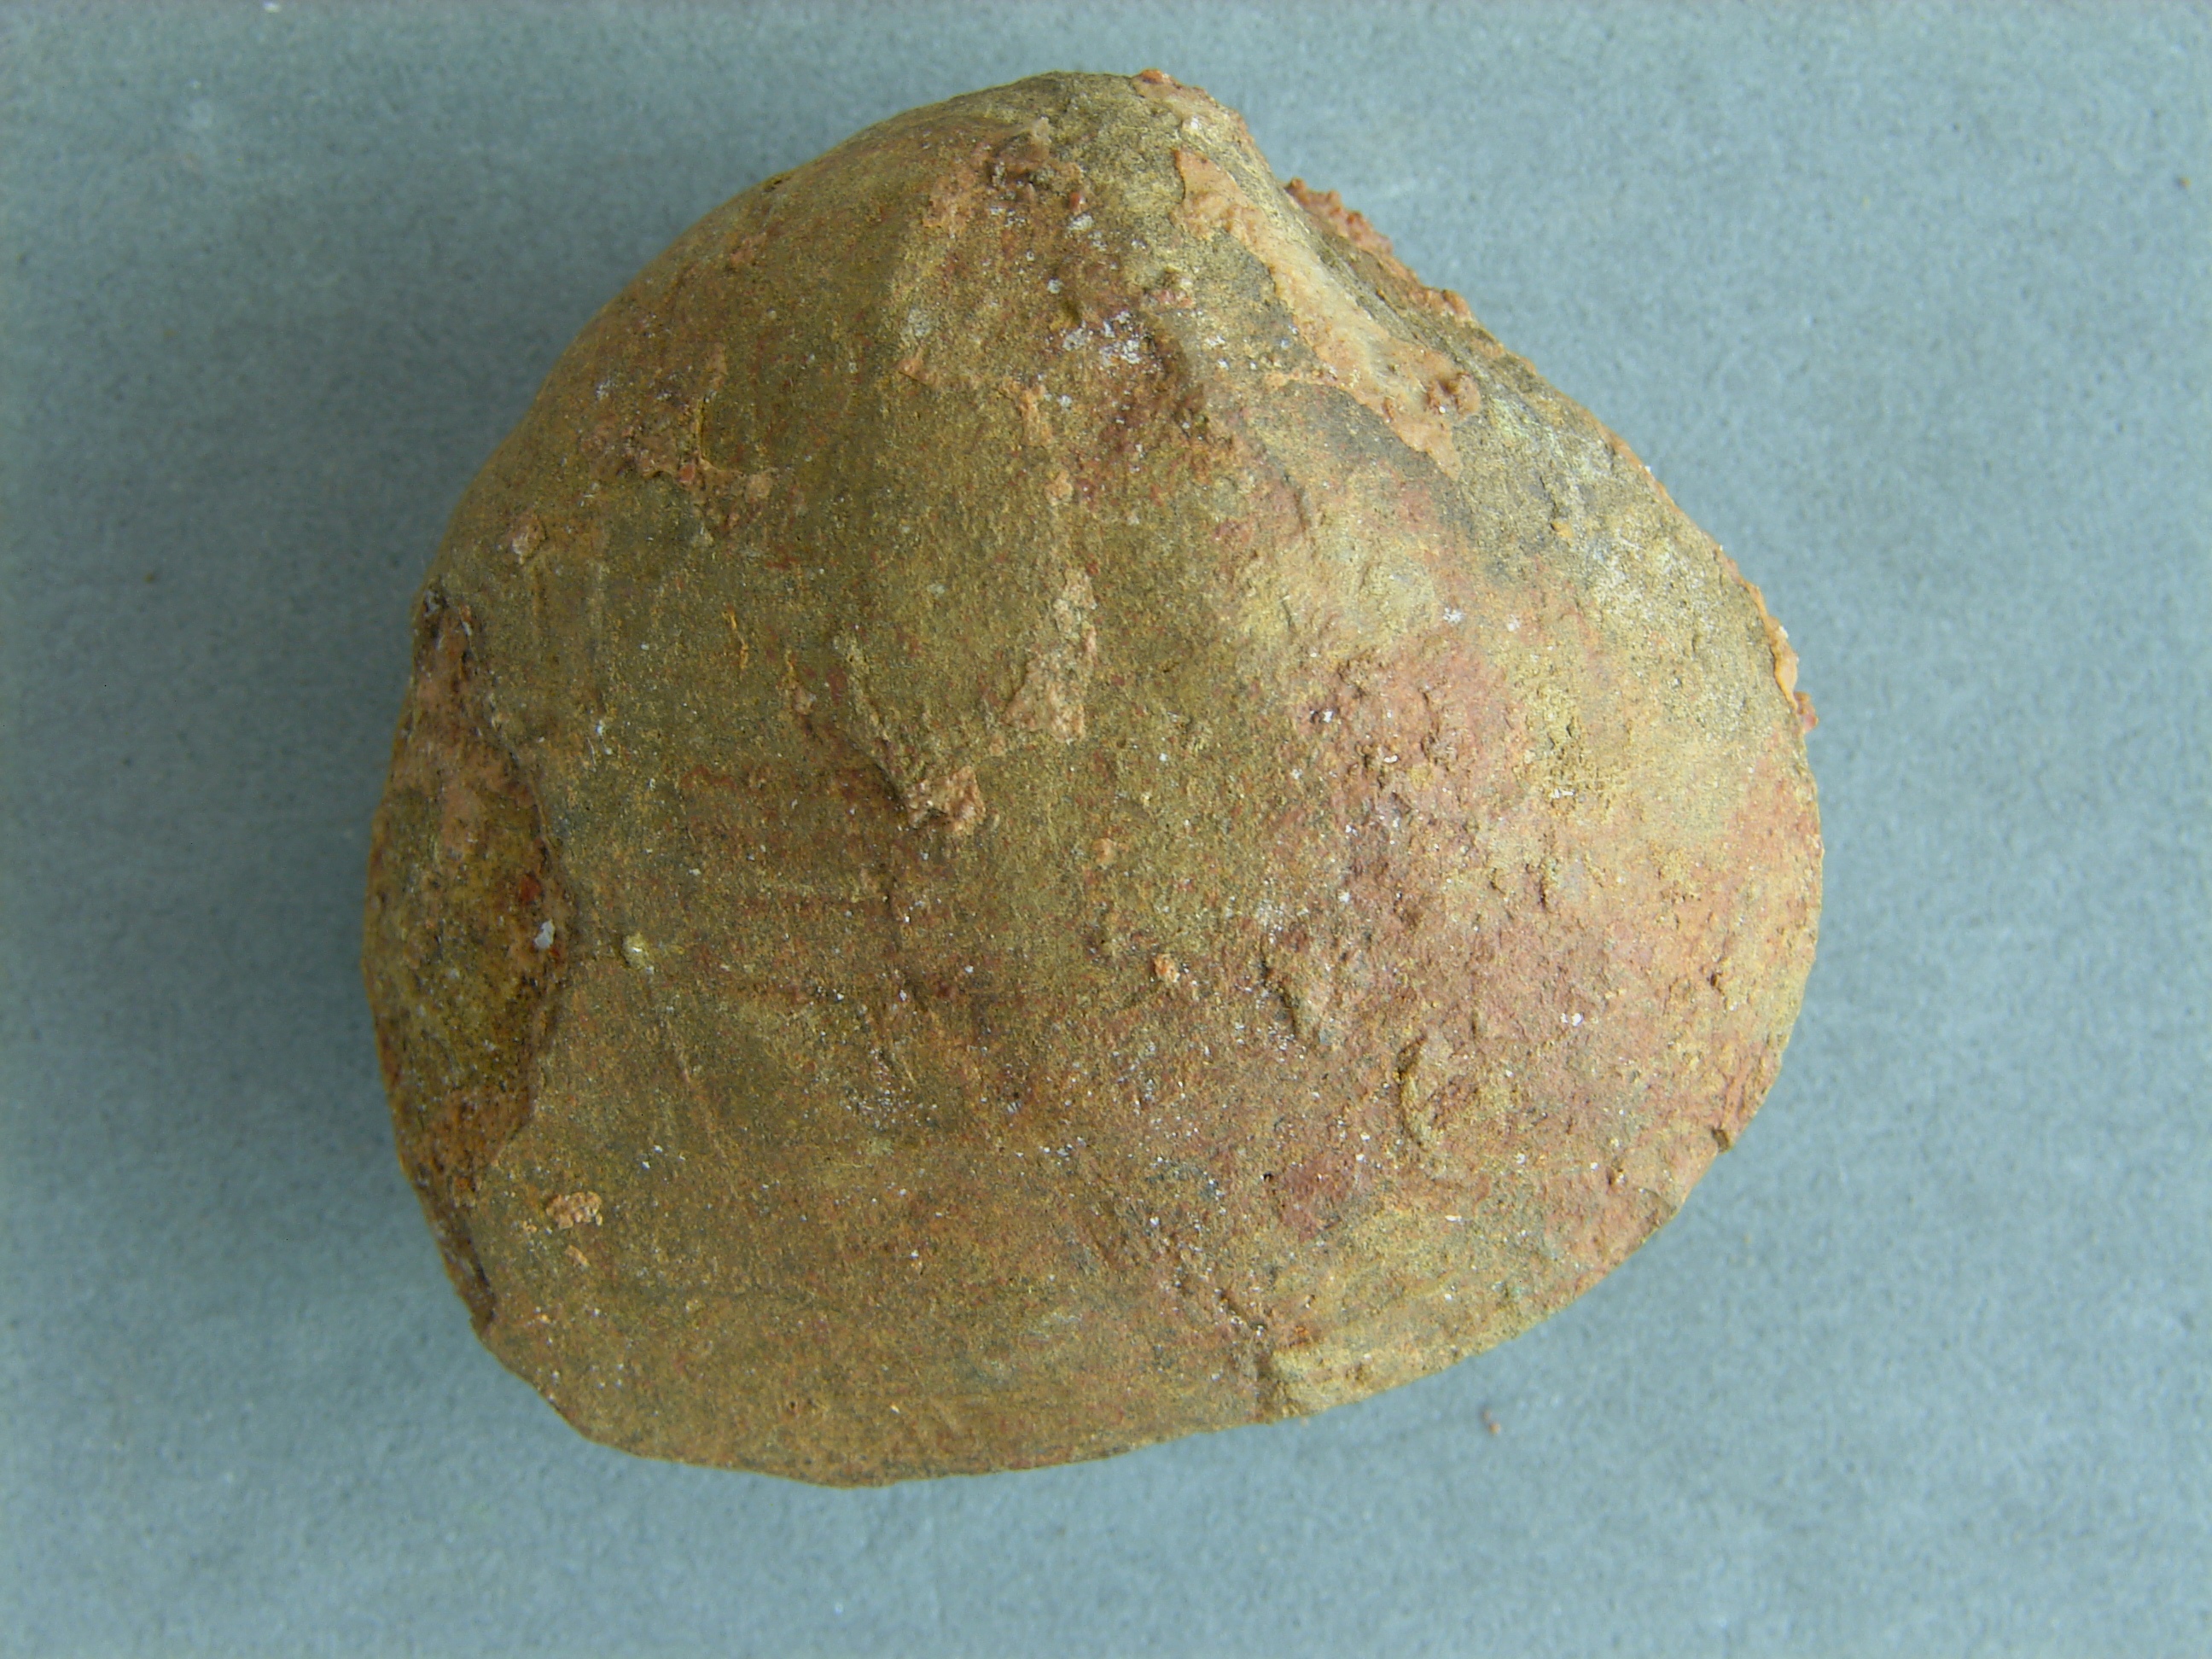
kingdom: Animalia
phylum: Mollusca
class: Bivalvia
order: Venerida
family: Mactridae
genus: Lutraria
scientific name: Lutraria gregaria
